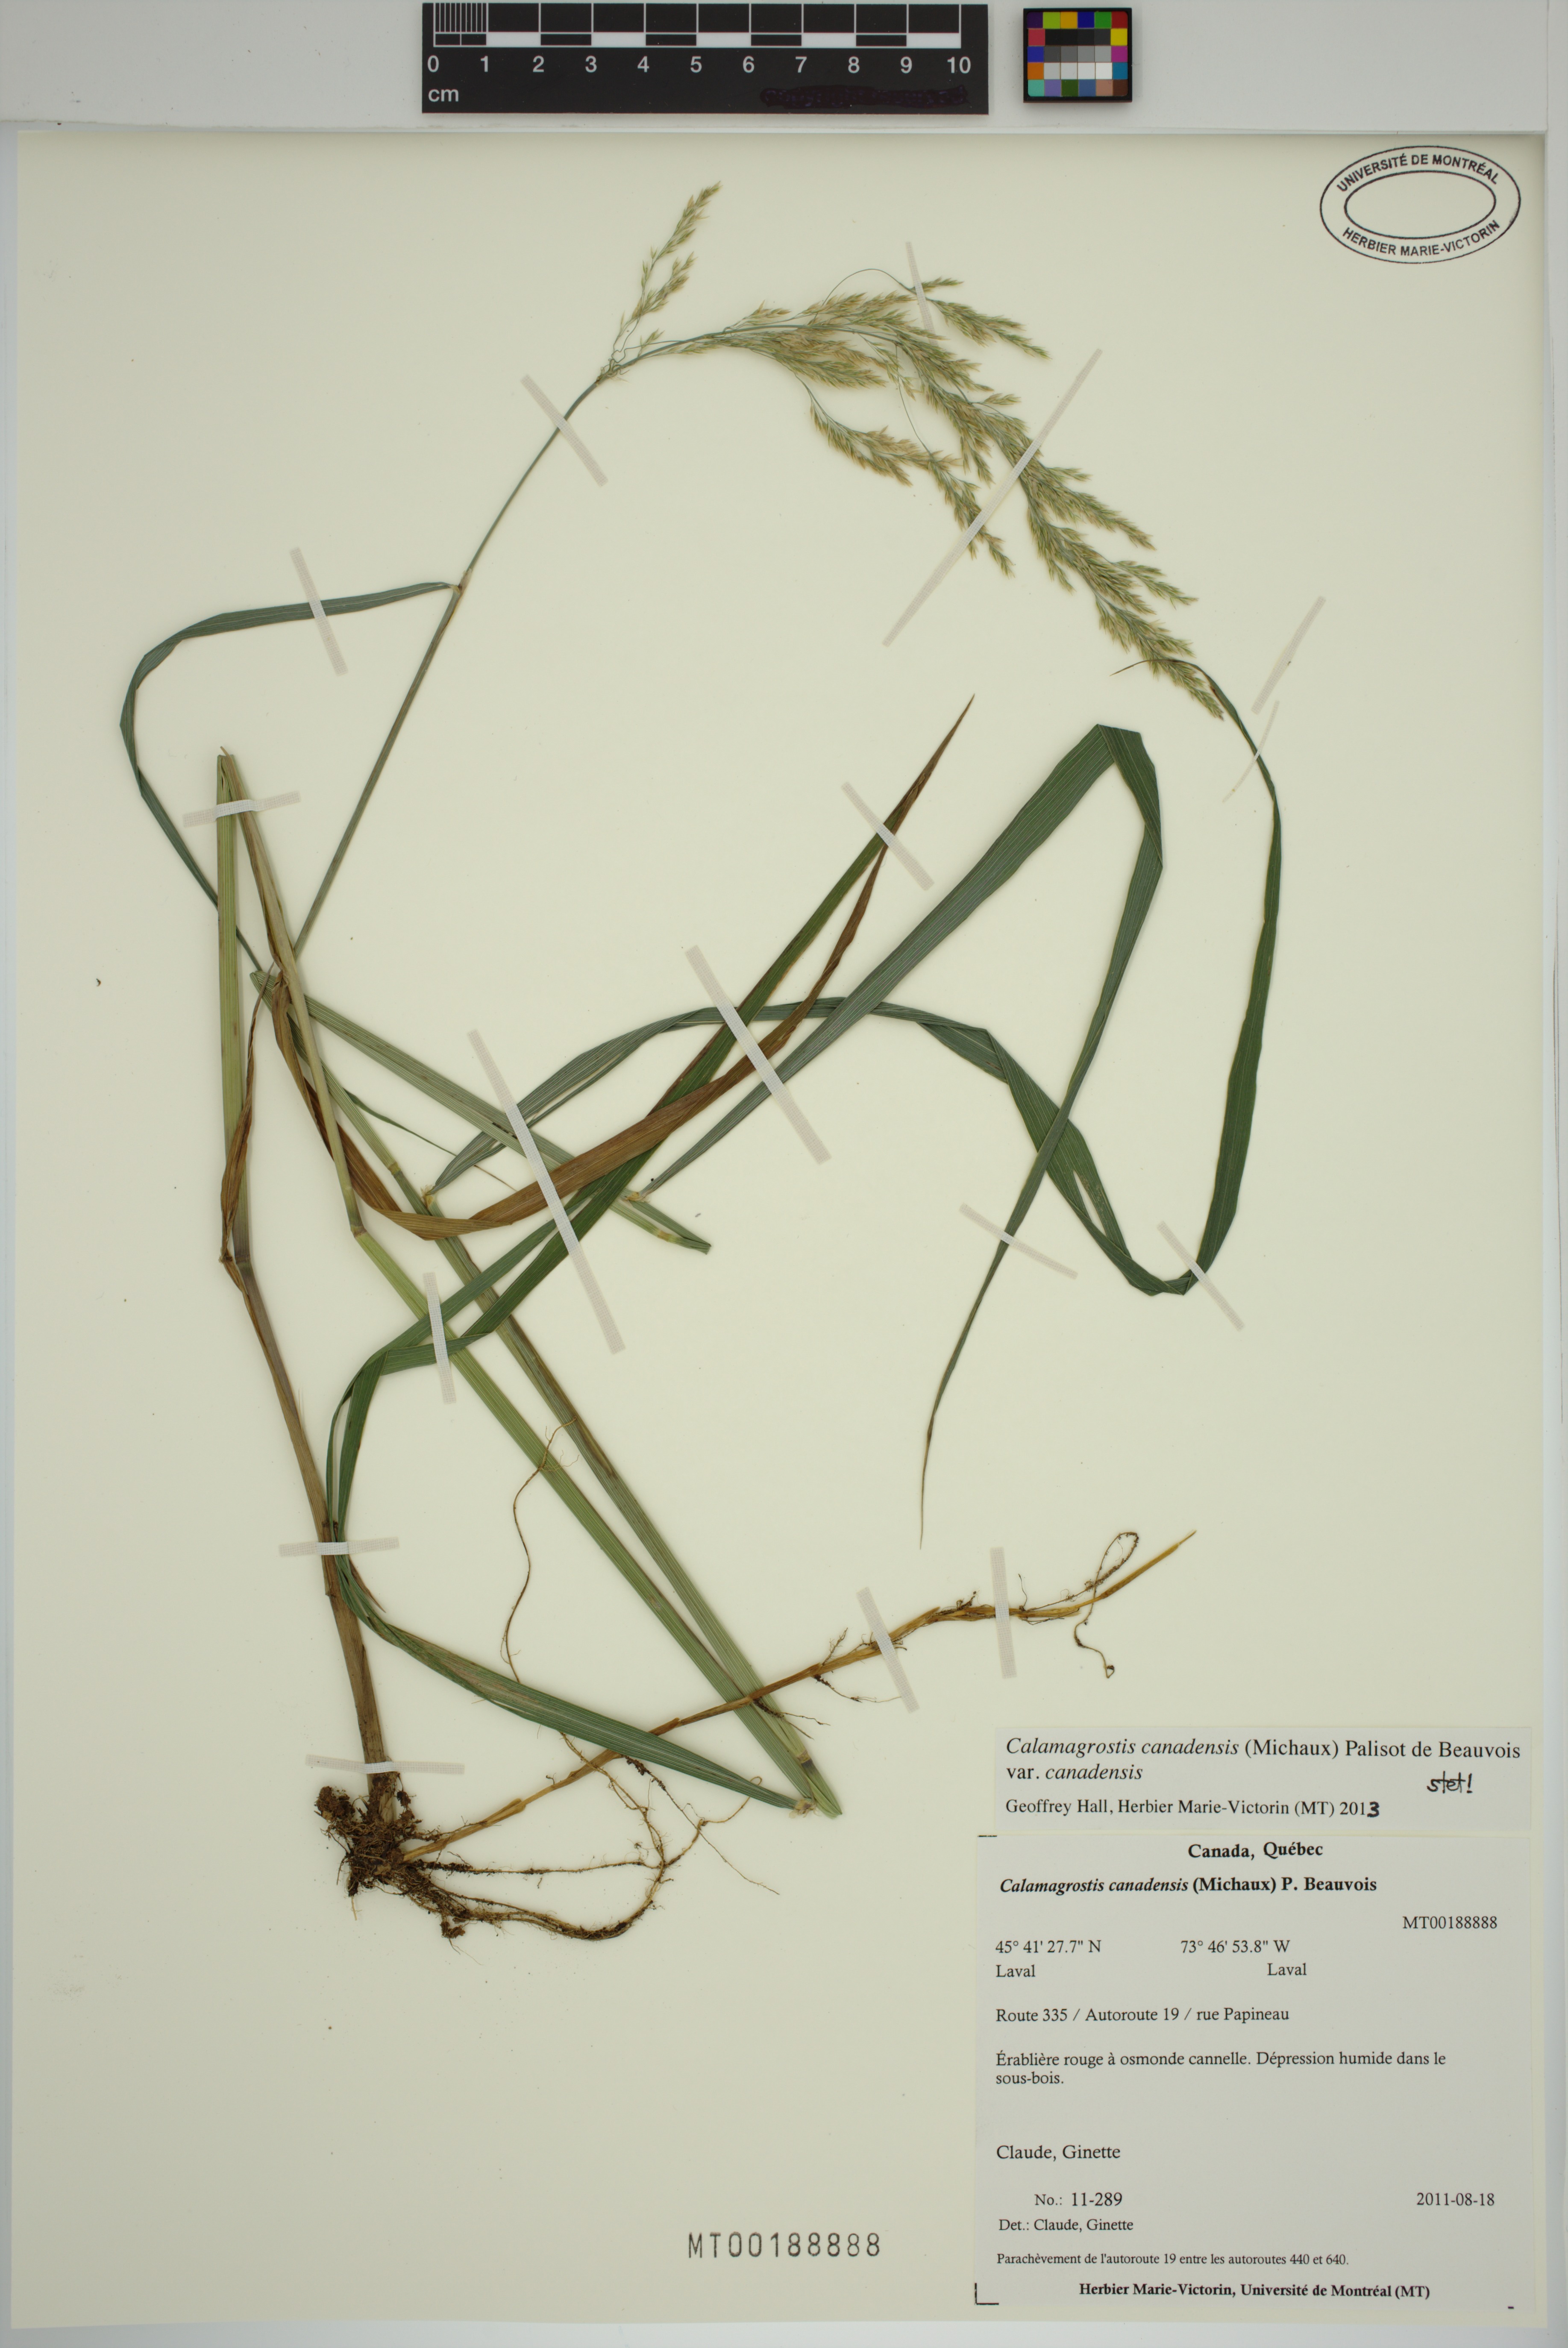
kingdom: Plantae
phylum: Tracheophyta
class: Liliopsida
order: Poales
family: Poaceae
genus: Calamagrostis
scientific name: Calamagrostis canadensis
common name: Canada bluejoint
